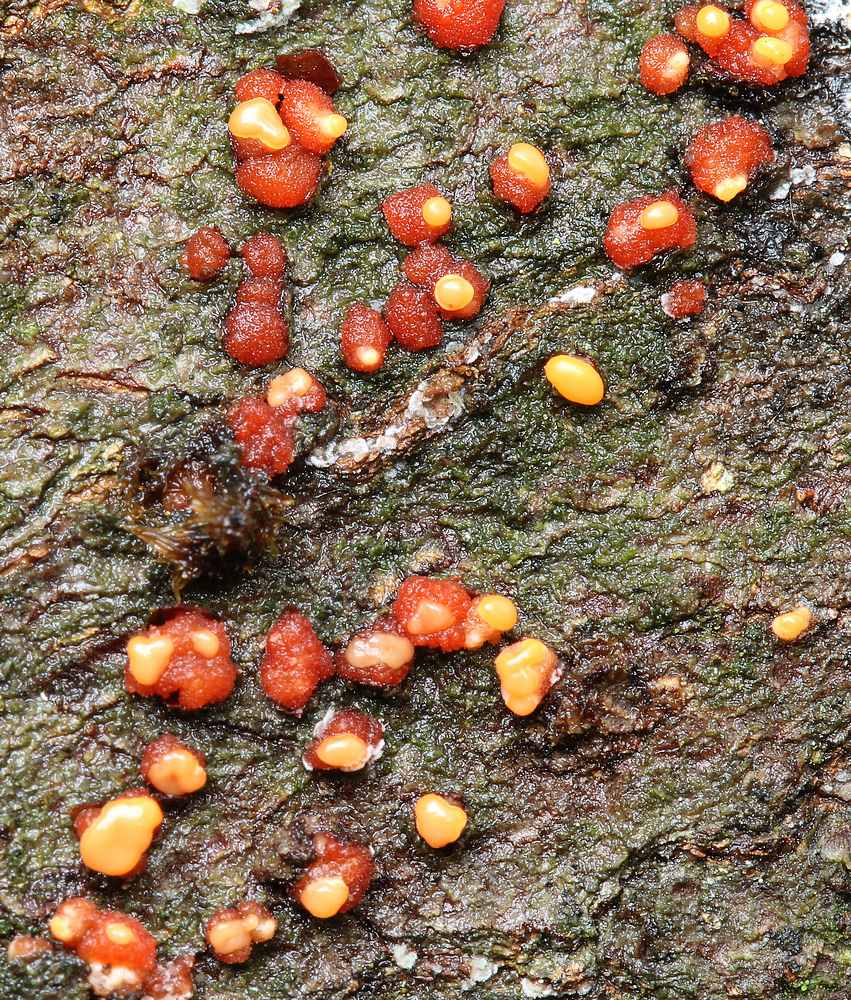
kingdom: Fungi
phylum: Ascomycota
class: Sordariomycetes
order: Hypocreales
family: Nectriaceae
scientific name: Nectriaceae
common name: cinnobersvampfamilien
